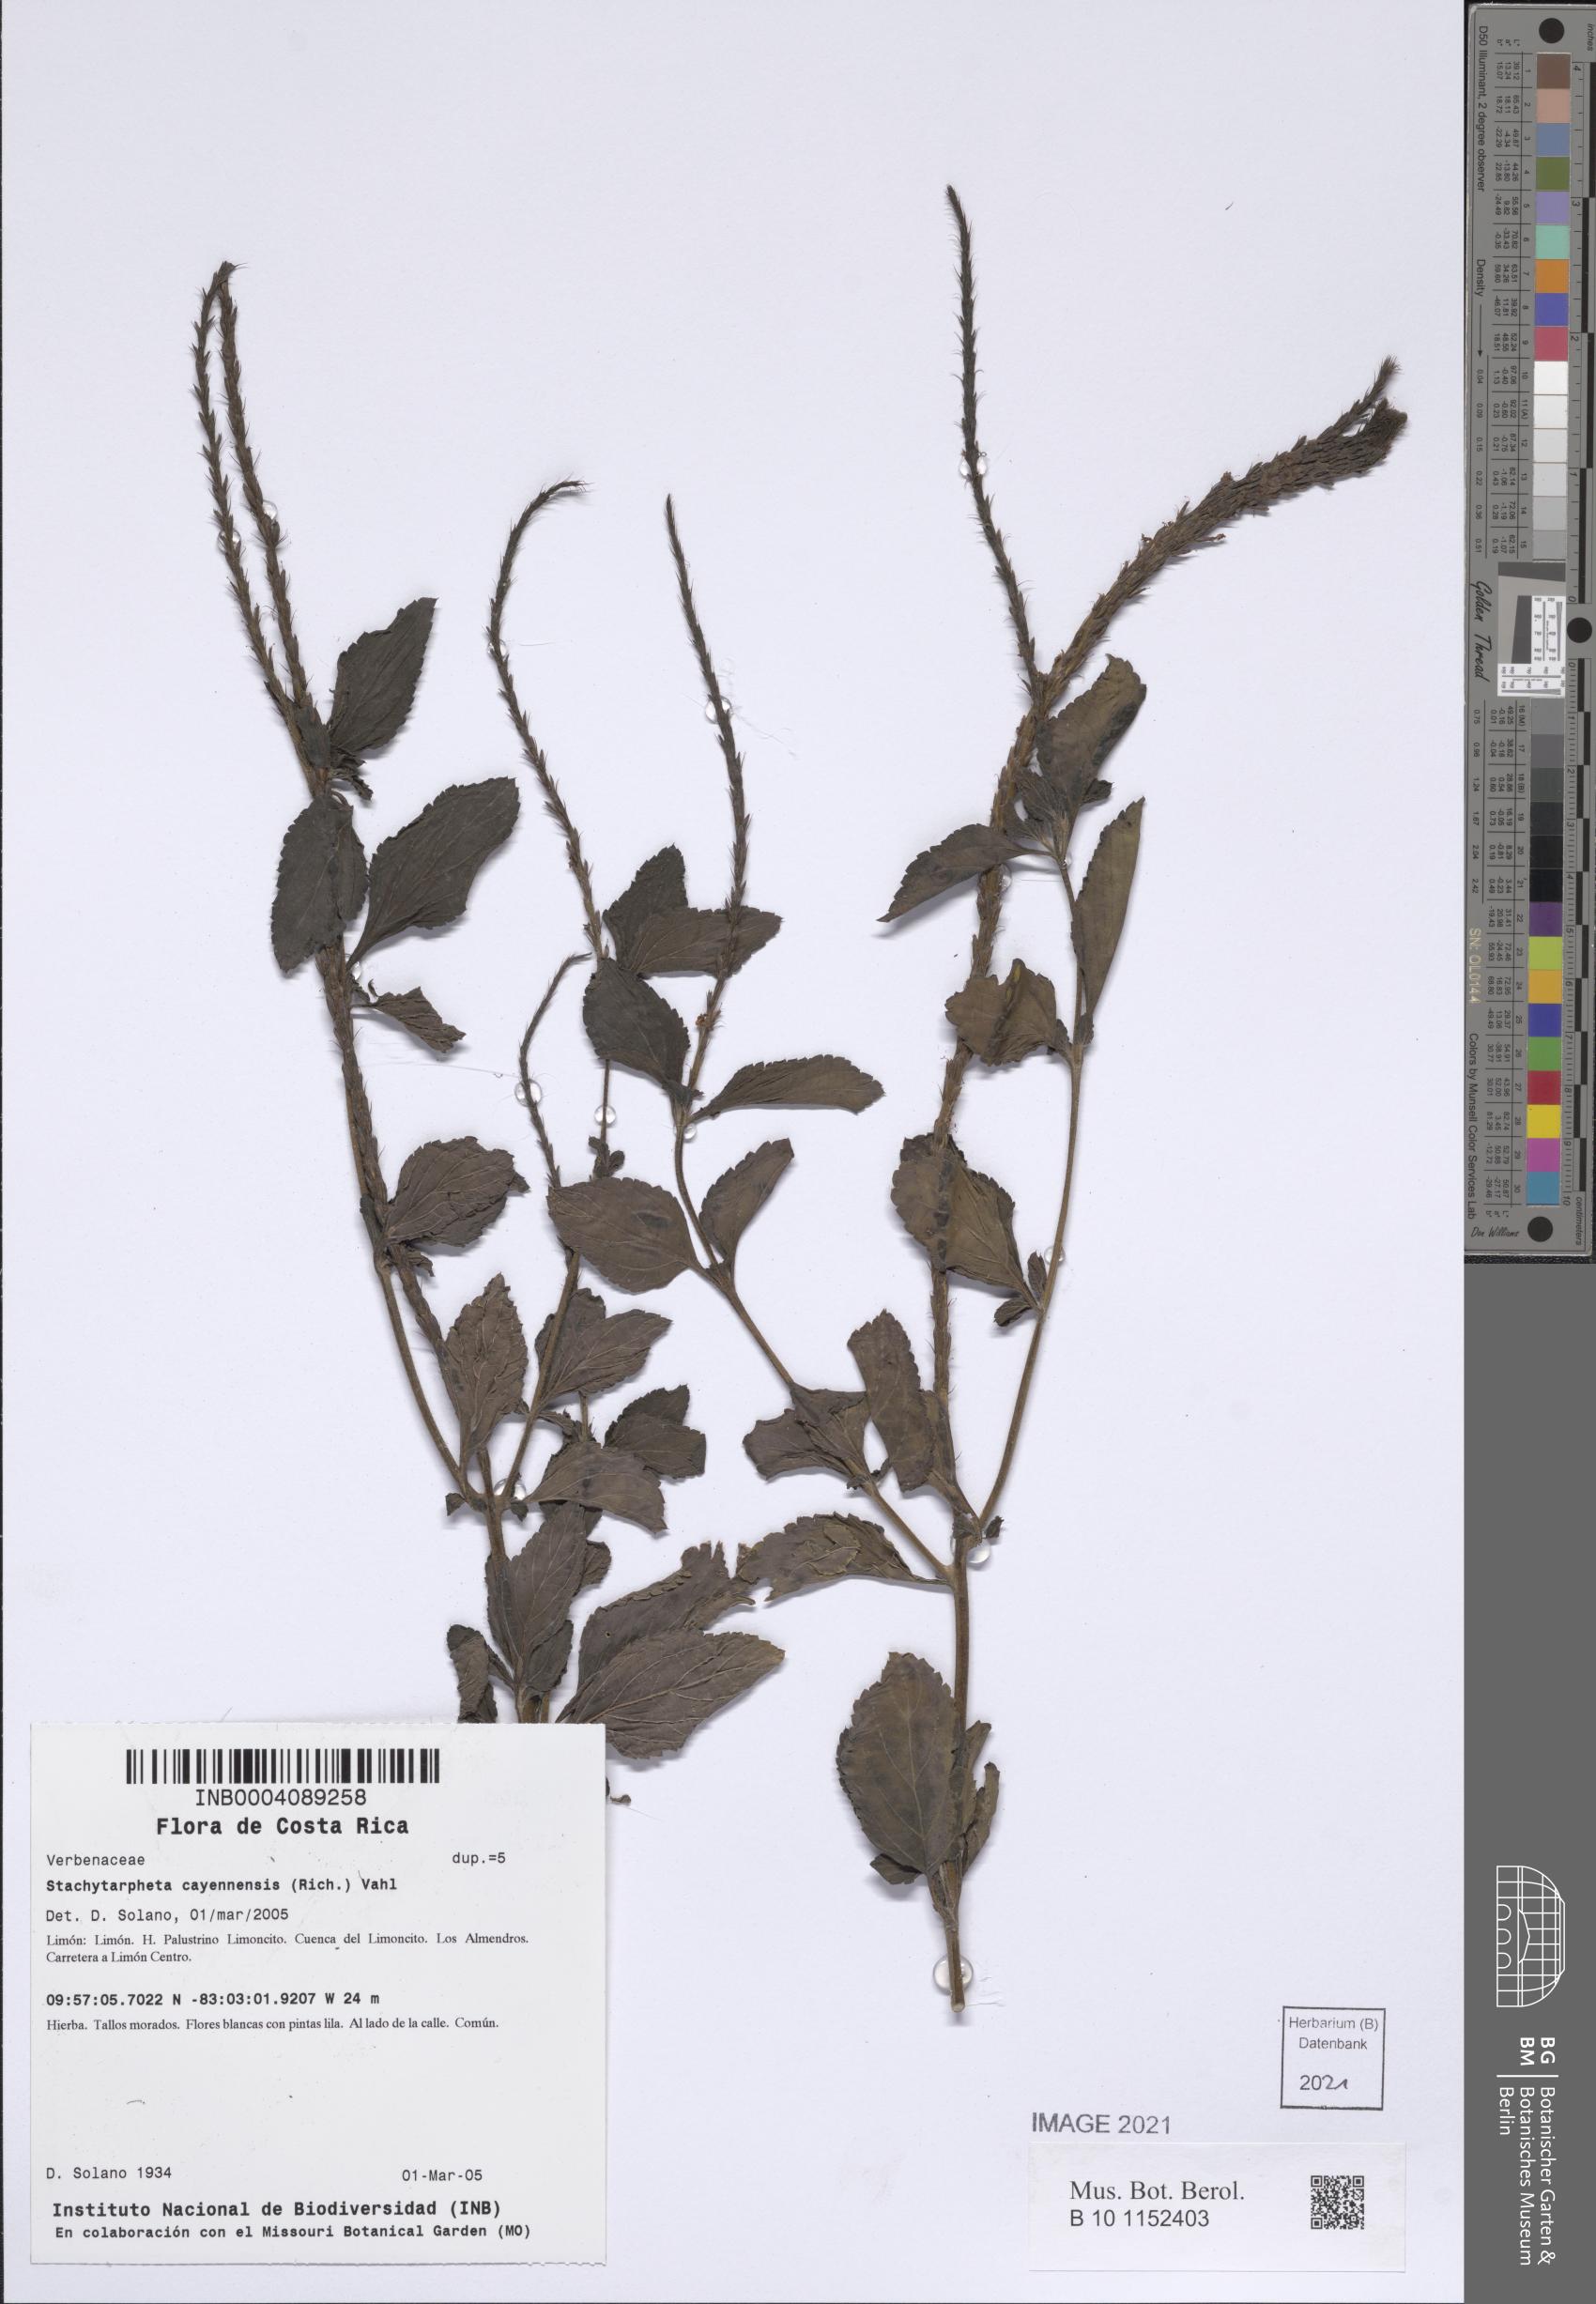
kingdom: Plantae
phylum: Tracheophyta
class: Magnoliopsida
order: Lamiales
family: Verbenaceae
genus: Stachytarpheta
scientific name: Stachytarpheta cayennensis
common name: Cayenne porterweed
